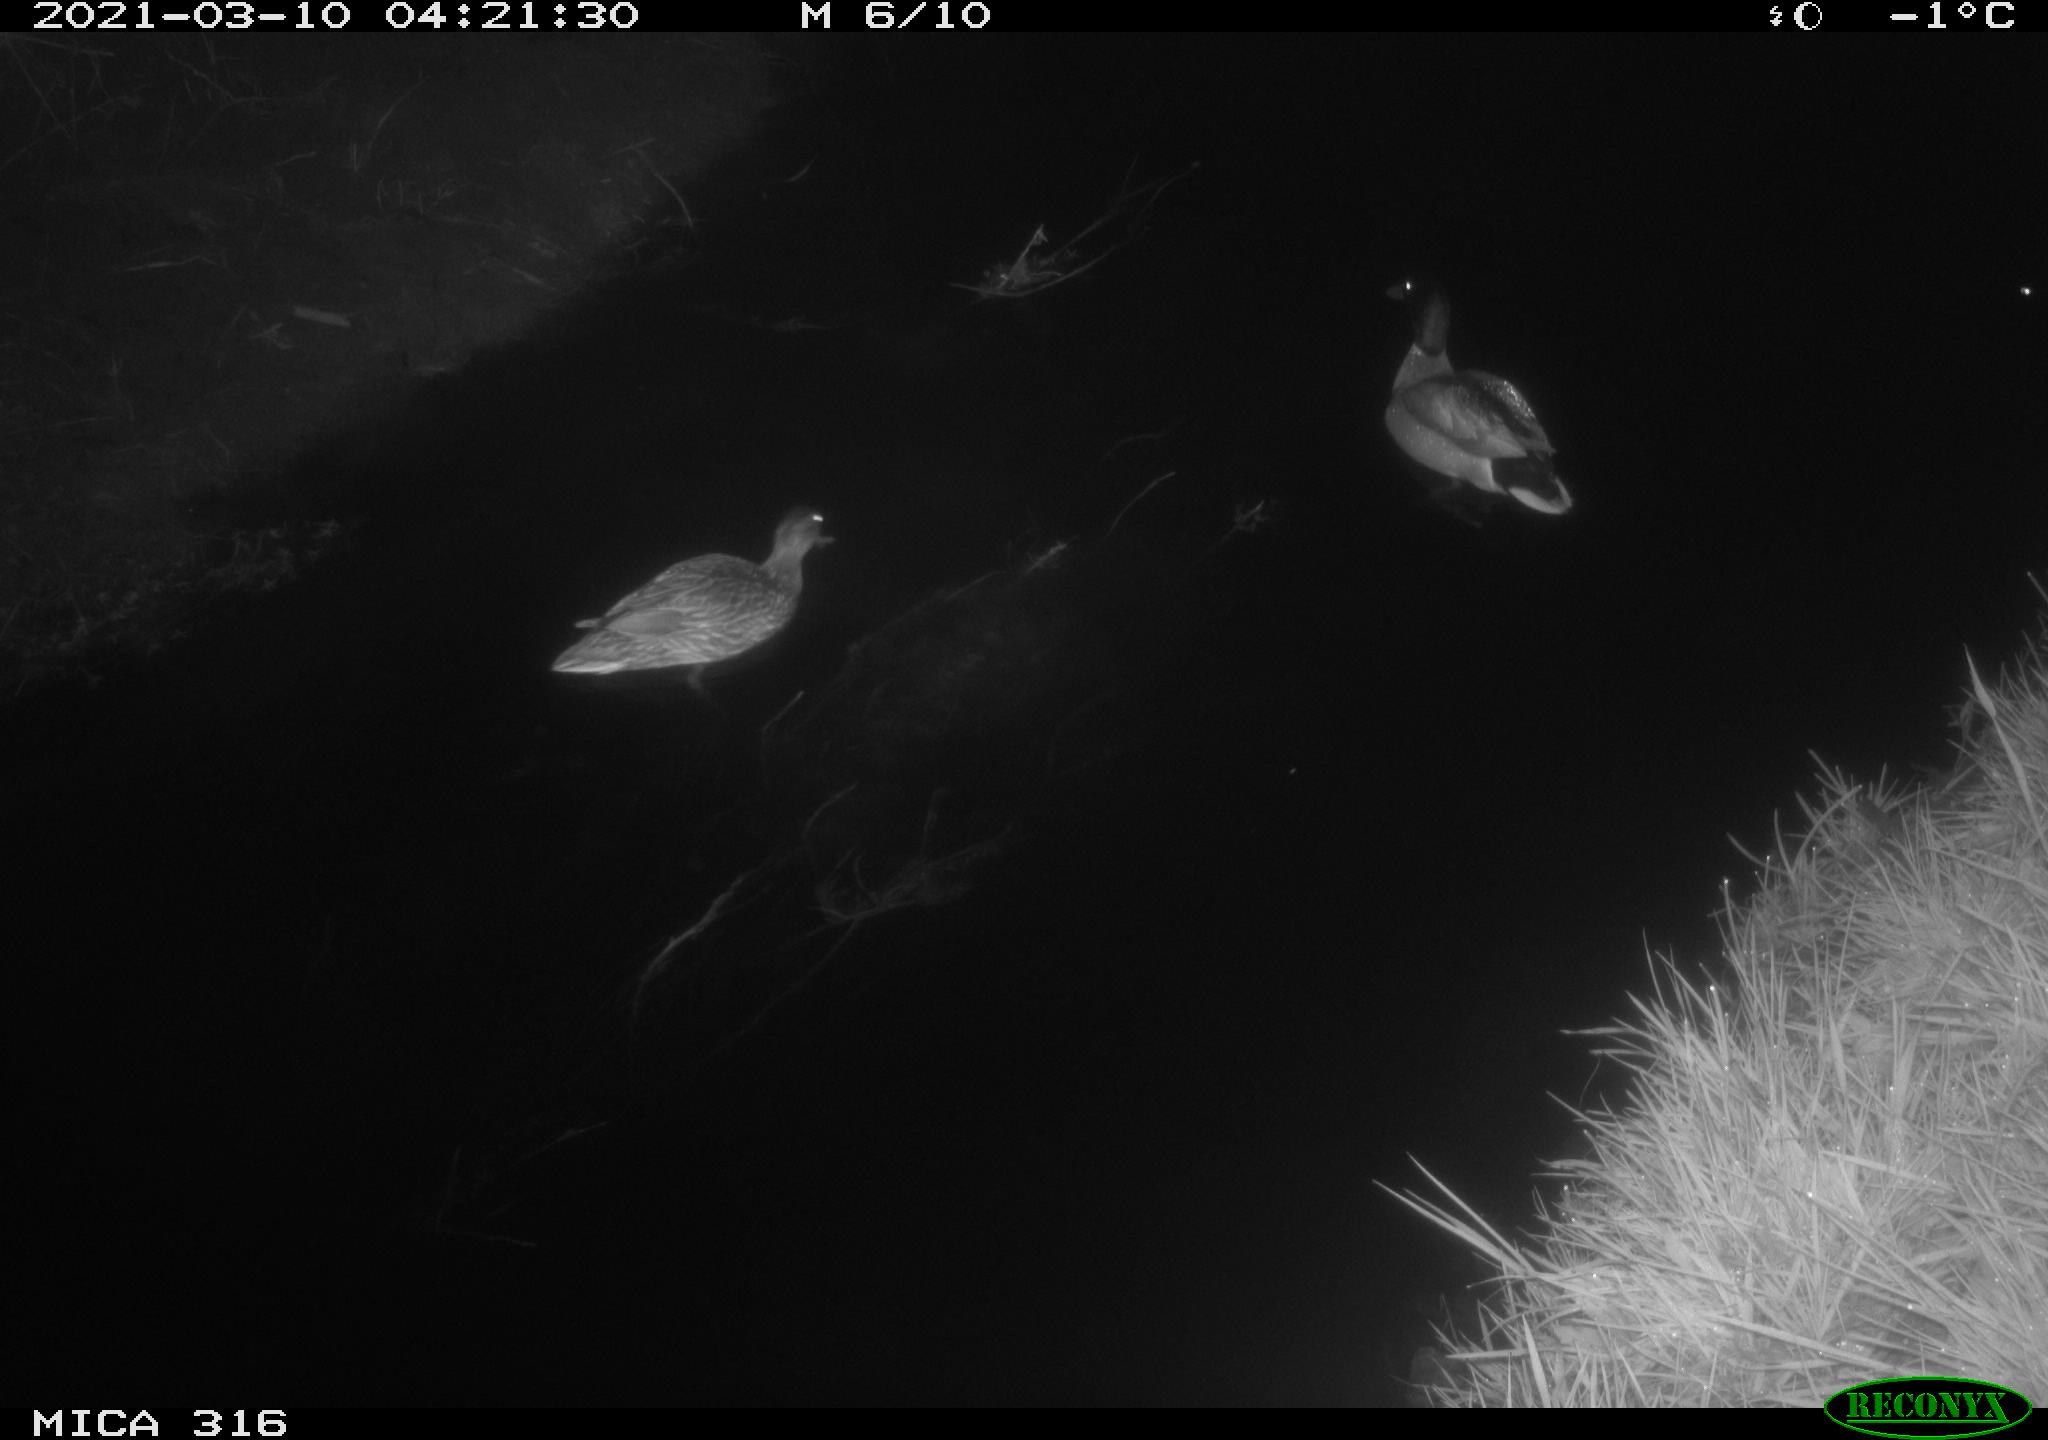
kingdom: Animalia
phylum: Chordata
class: Aves
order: Anseriformes
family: Anatidae
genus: Anas
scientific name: Anas platyrhynchos
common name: Mallard
